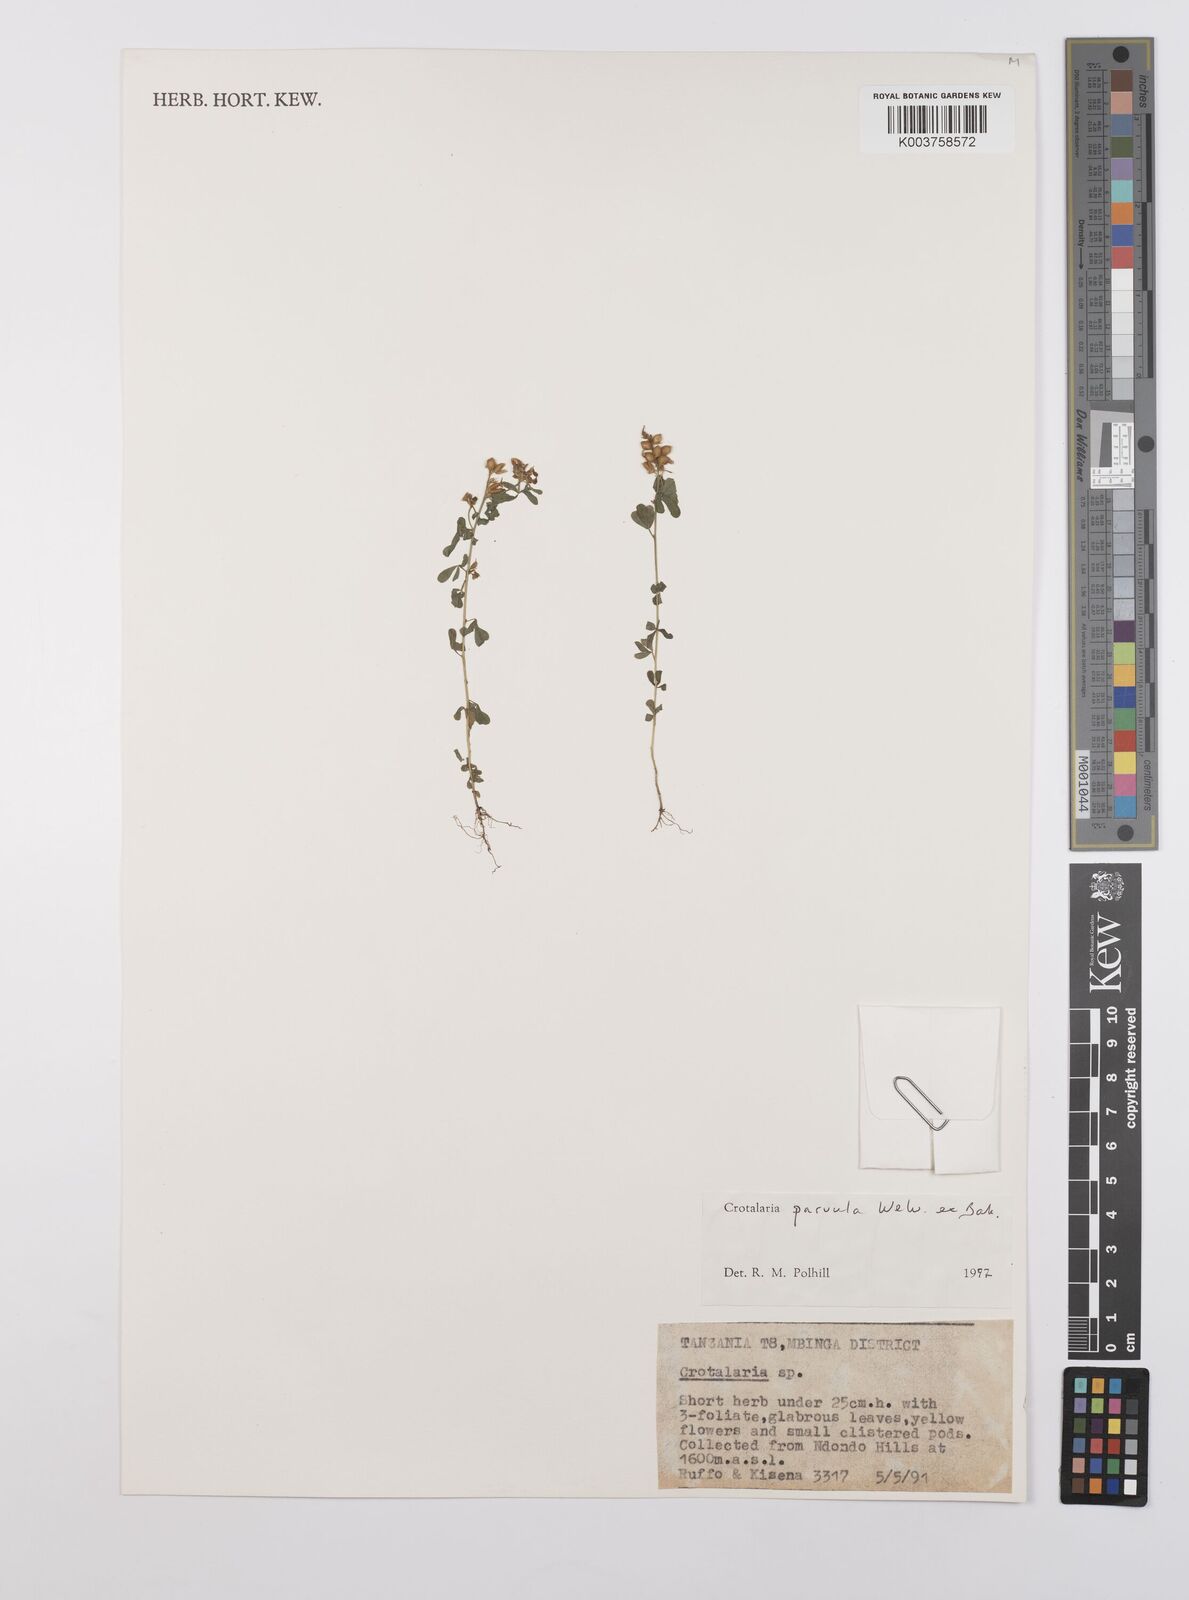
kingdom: Plantae
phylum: Tracheophyta
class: Magnoliopsida
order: Fabales
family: Fabaceae
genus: Crotalaria
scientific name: Crotalaria parvula
